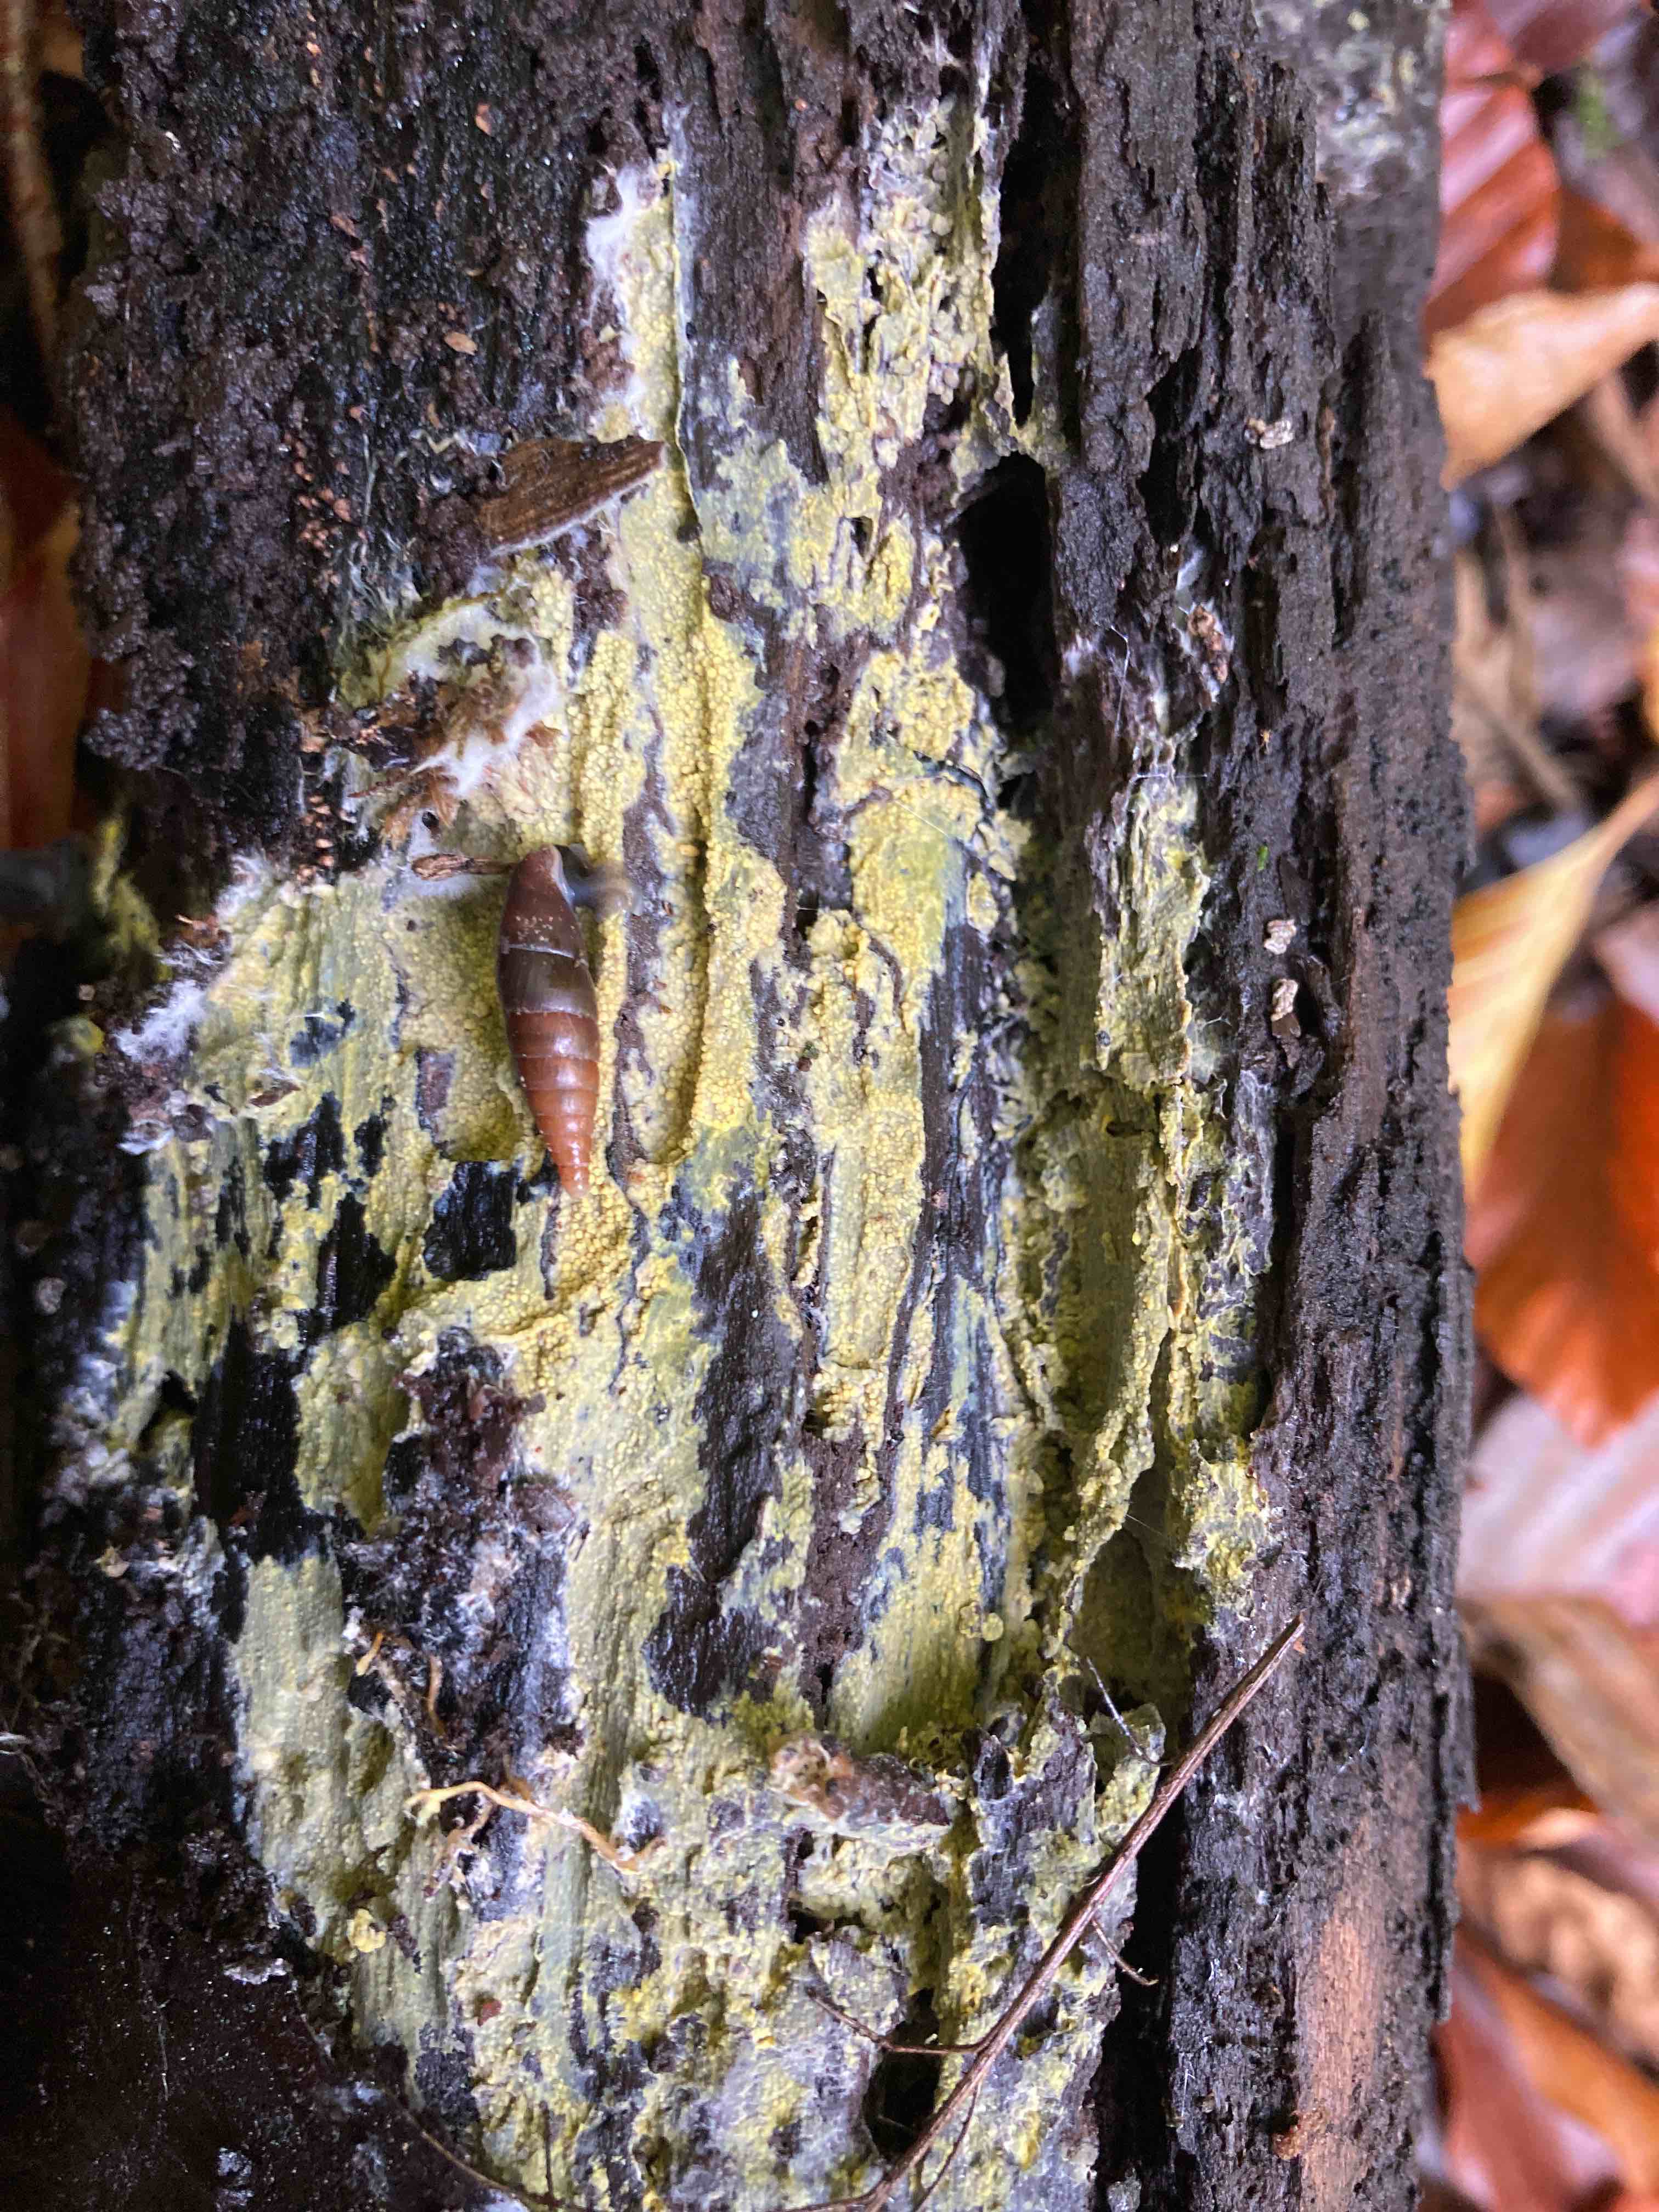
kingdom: Fungi
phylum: Basidiomycota
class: Agaricomycetes
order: Polyporales
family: Meruliaceae
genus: Phlebiodontia
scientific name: Phlebiodontia subochracea
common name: svovl-åresvamp
